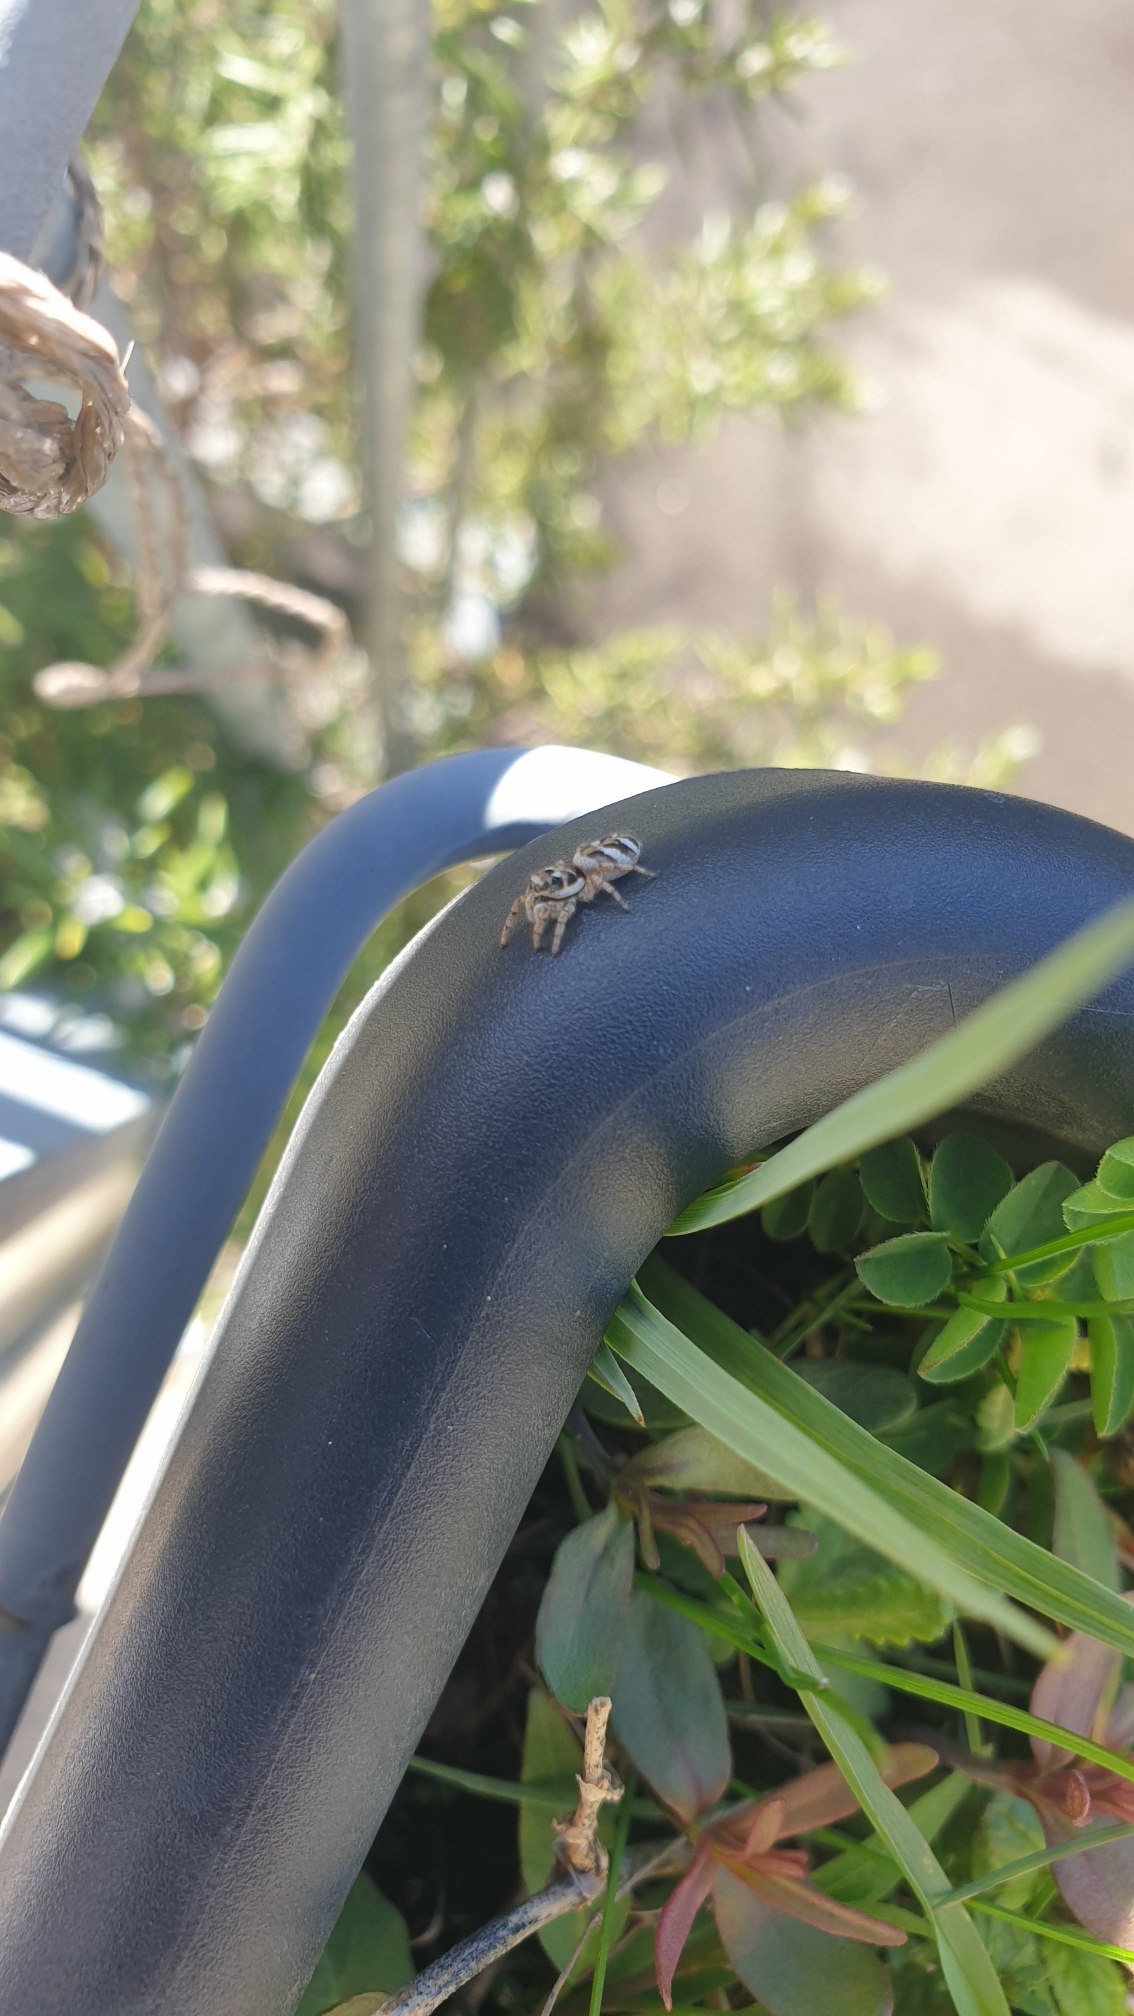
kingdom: Animalia
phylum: Arthropoda
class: Arachnida
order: Araneae
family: Salticidae
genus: Salticus
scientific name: Salticus scenicus
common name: Almindelig zebraedderkop
